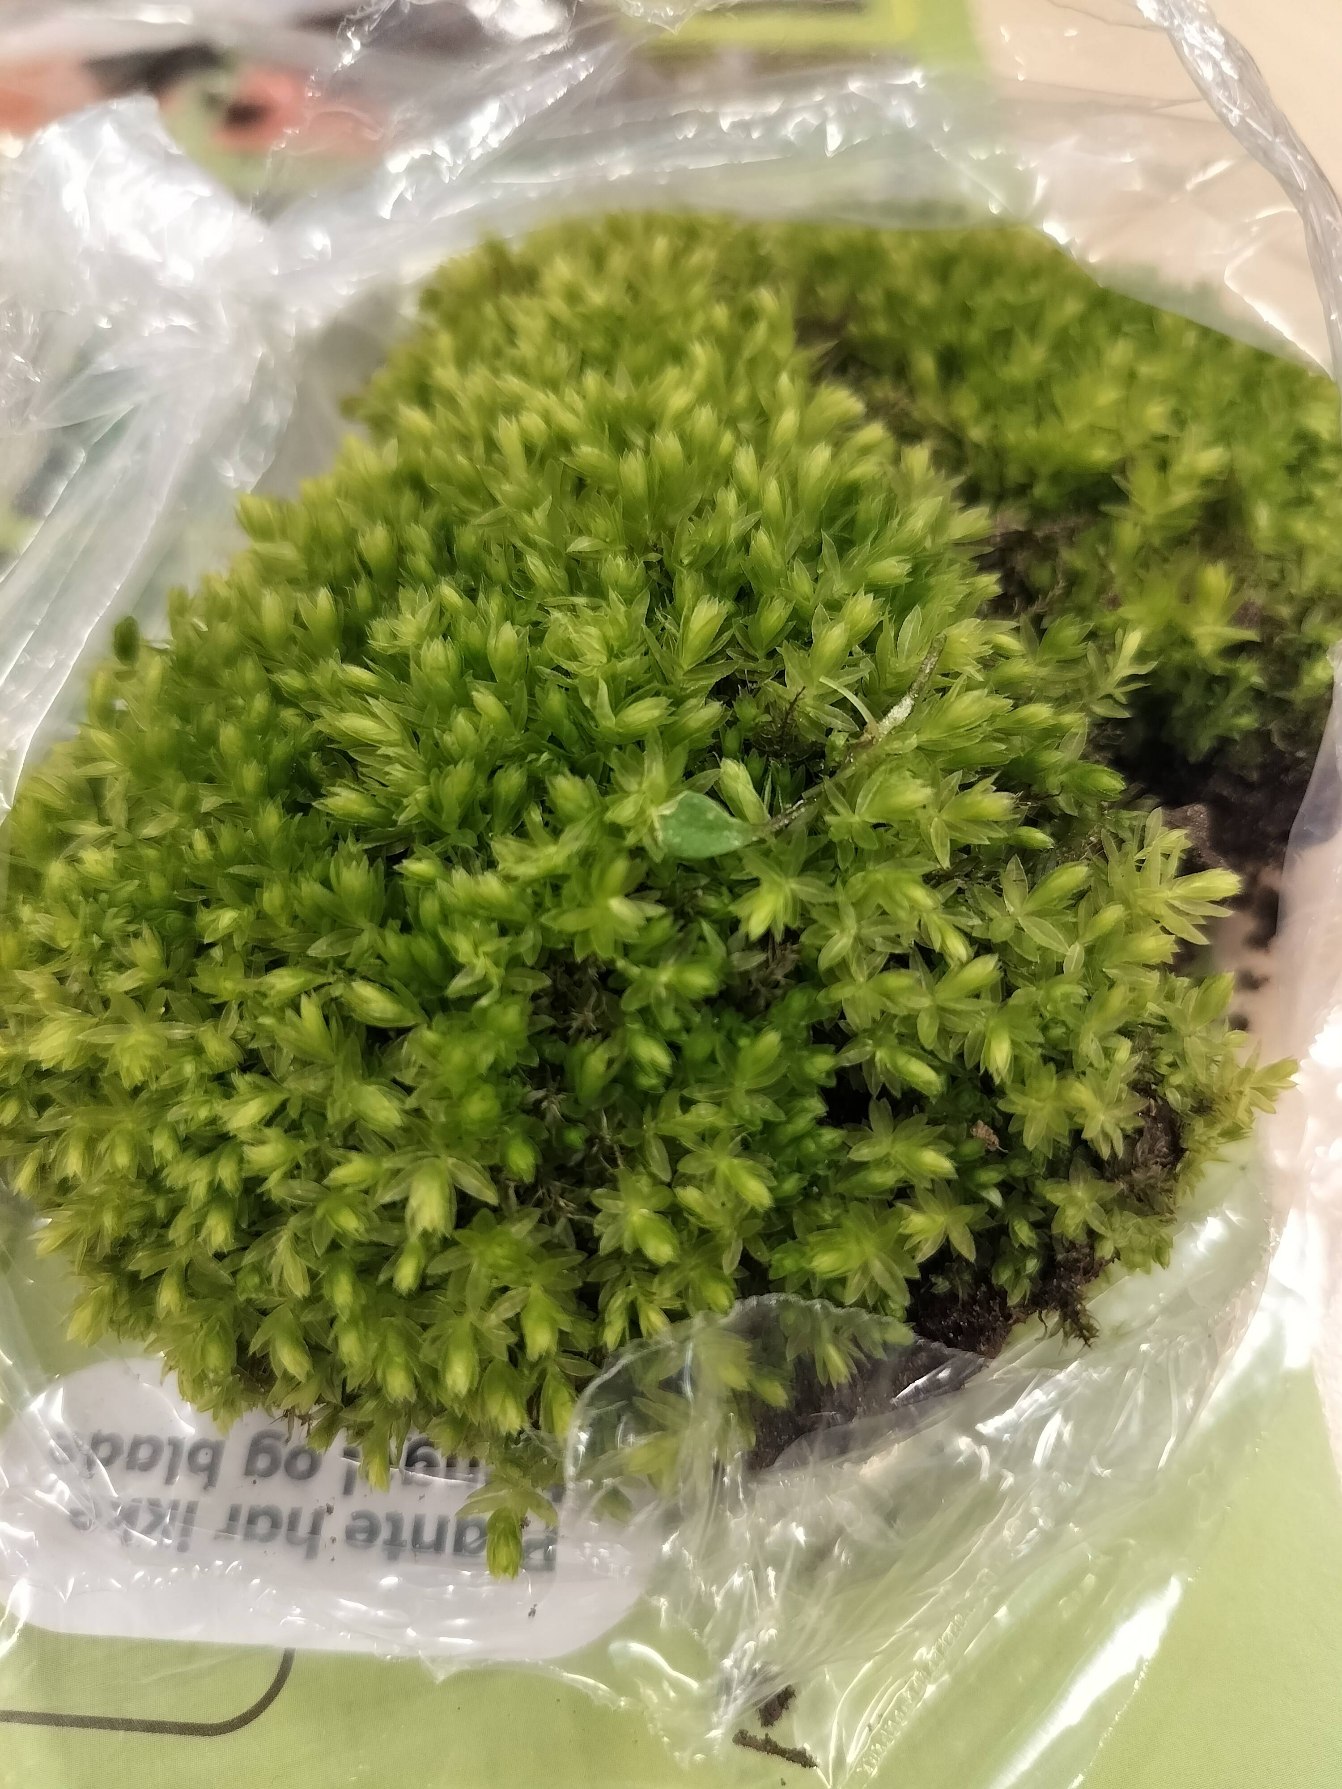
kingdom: Plantae
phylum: Bryophyta
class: Bryopsida
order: Bryales
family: Mniaceae
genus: Mnium
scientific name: Mnium hornum
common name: Brunfiltet stjernemos
